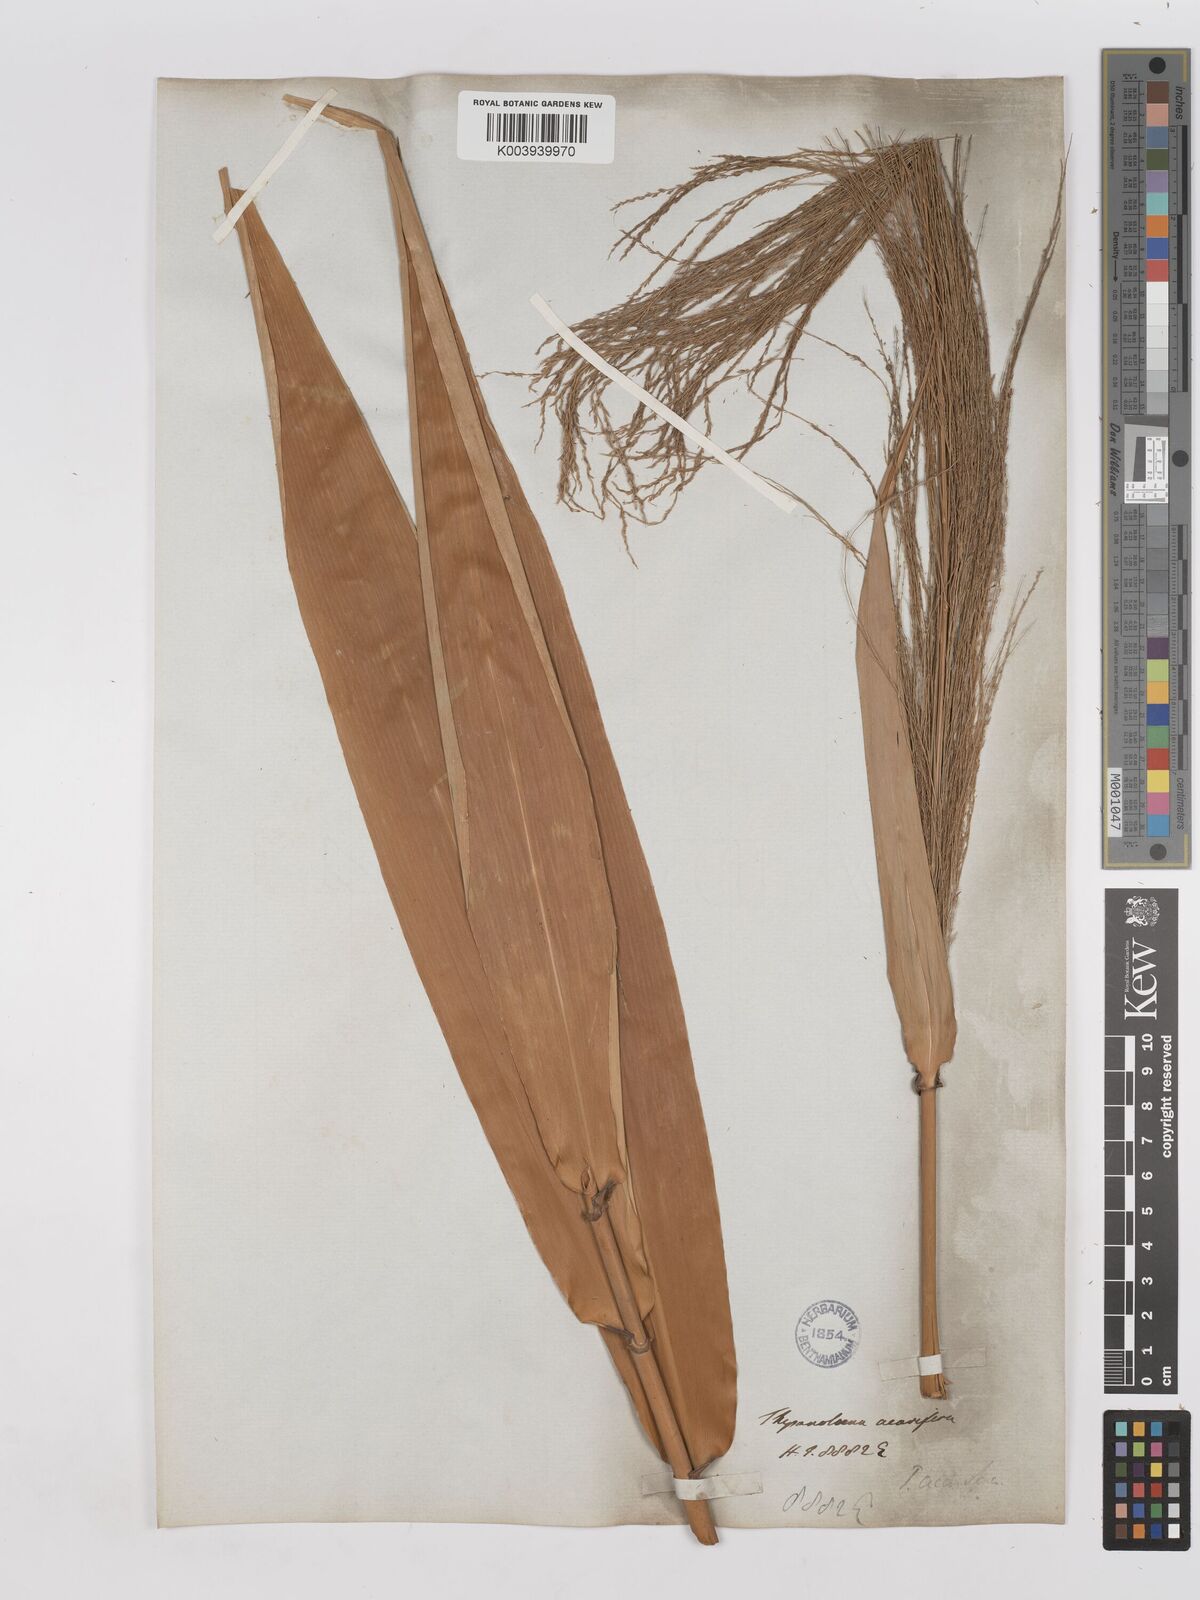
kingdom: Plantae
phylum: Tracheophyta
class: Liliopsida
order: Poales
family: Poaceae
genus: Thysanolaena
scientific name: Thysanolaena latifolia
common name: Tiger grass
